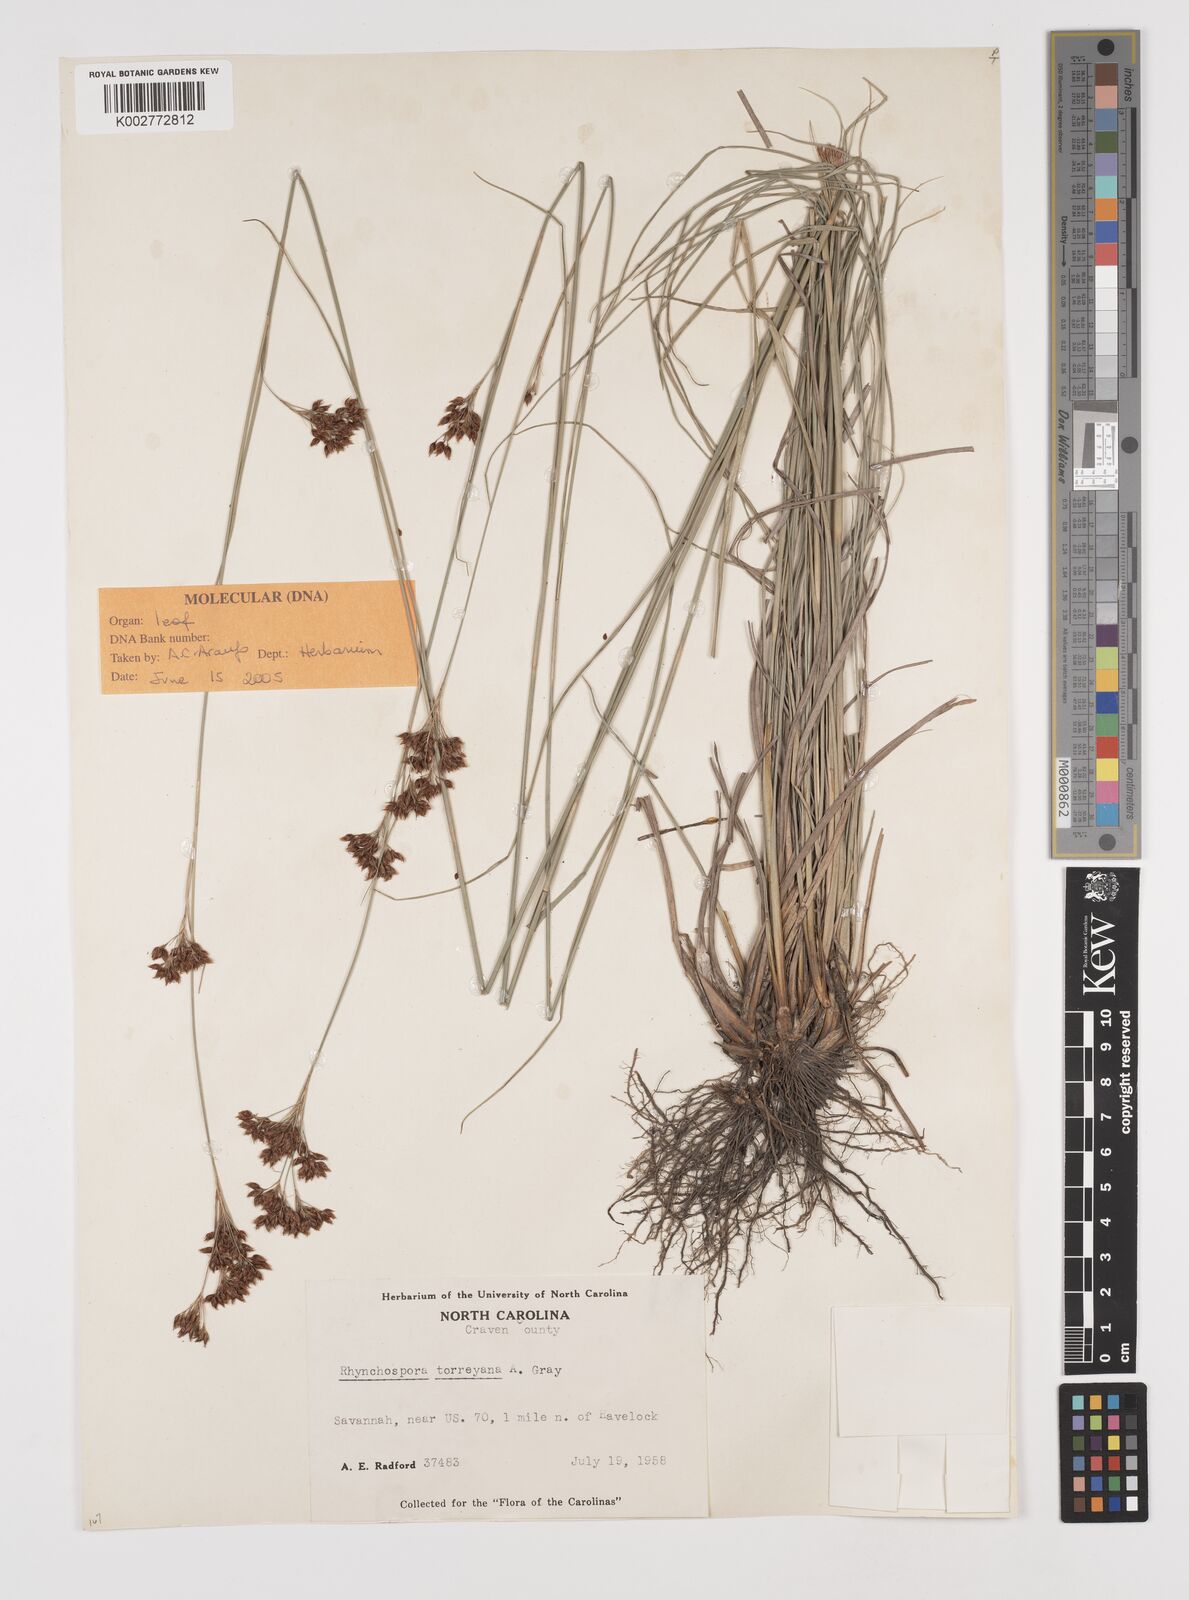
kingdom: Plantae
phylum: Tracheophyta
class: Liliopsida
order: Poales
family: Cyperaceae
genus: Rhynchospora
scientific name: Rhynchospora torreyana
